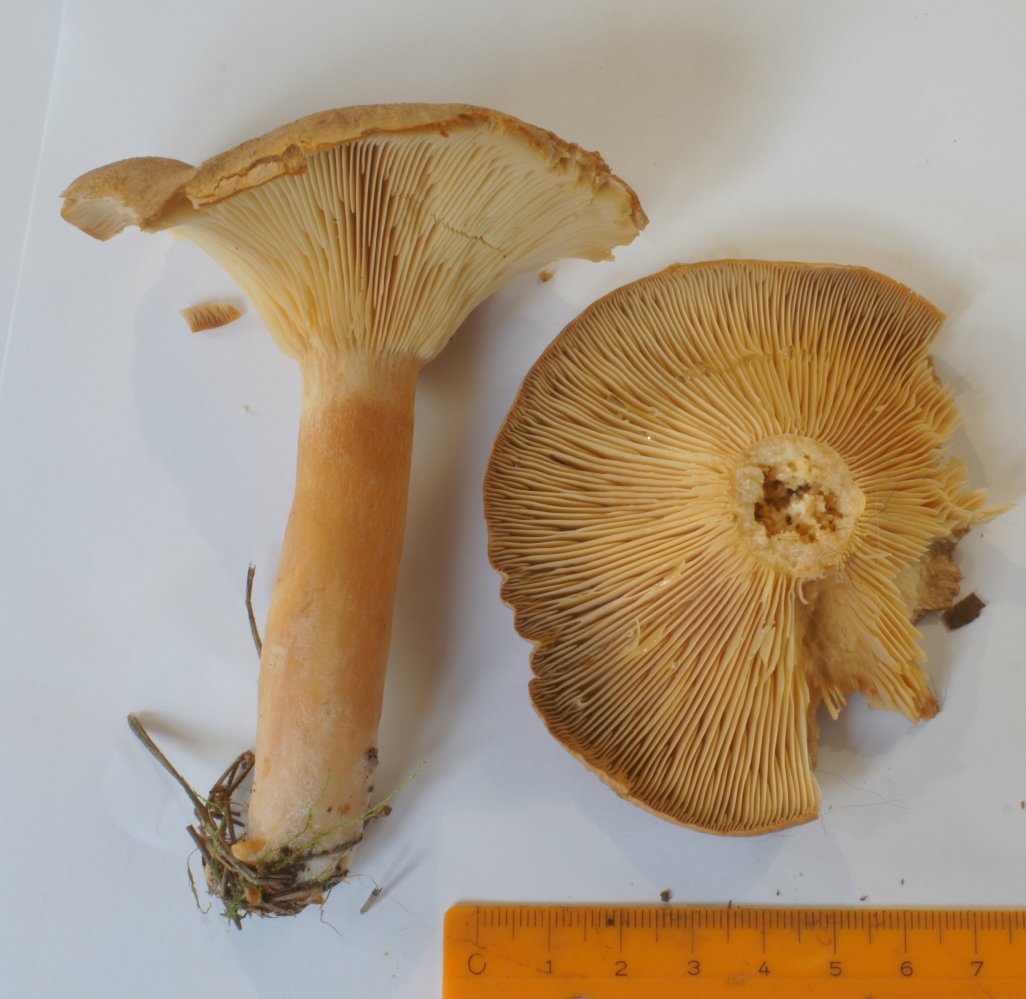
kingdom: Fungi
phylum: Basidiomycota
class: Agaricomycetes
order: Russulales
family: Russulaceae
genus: Lactarius
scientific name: Lactarius helvus
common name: mose-mælkehat
